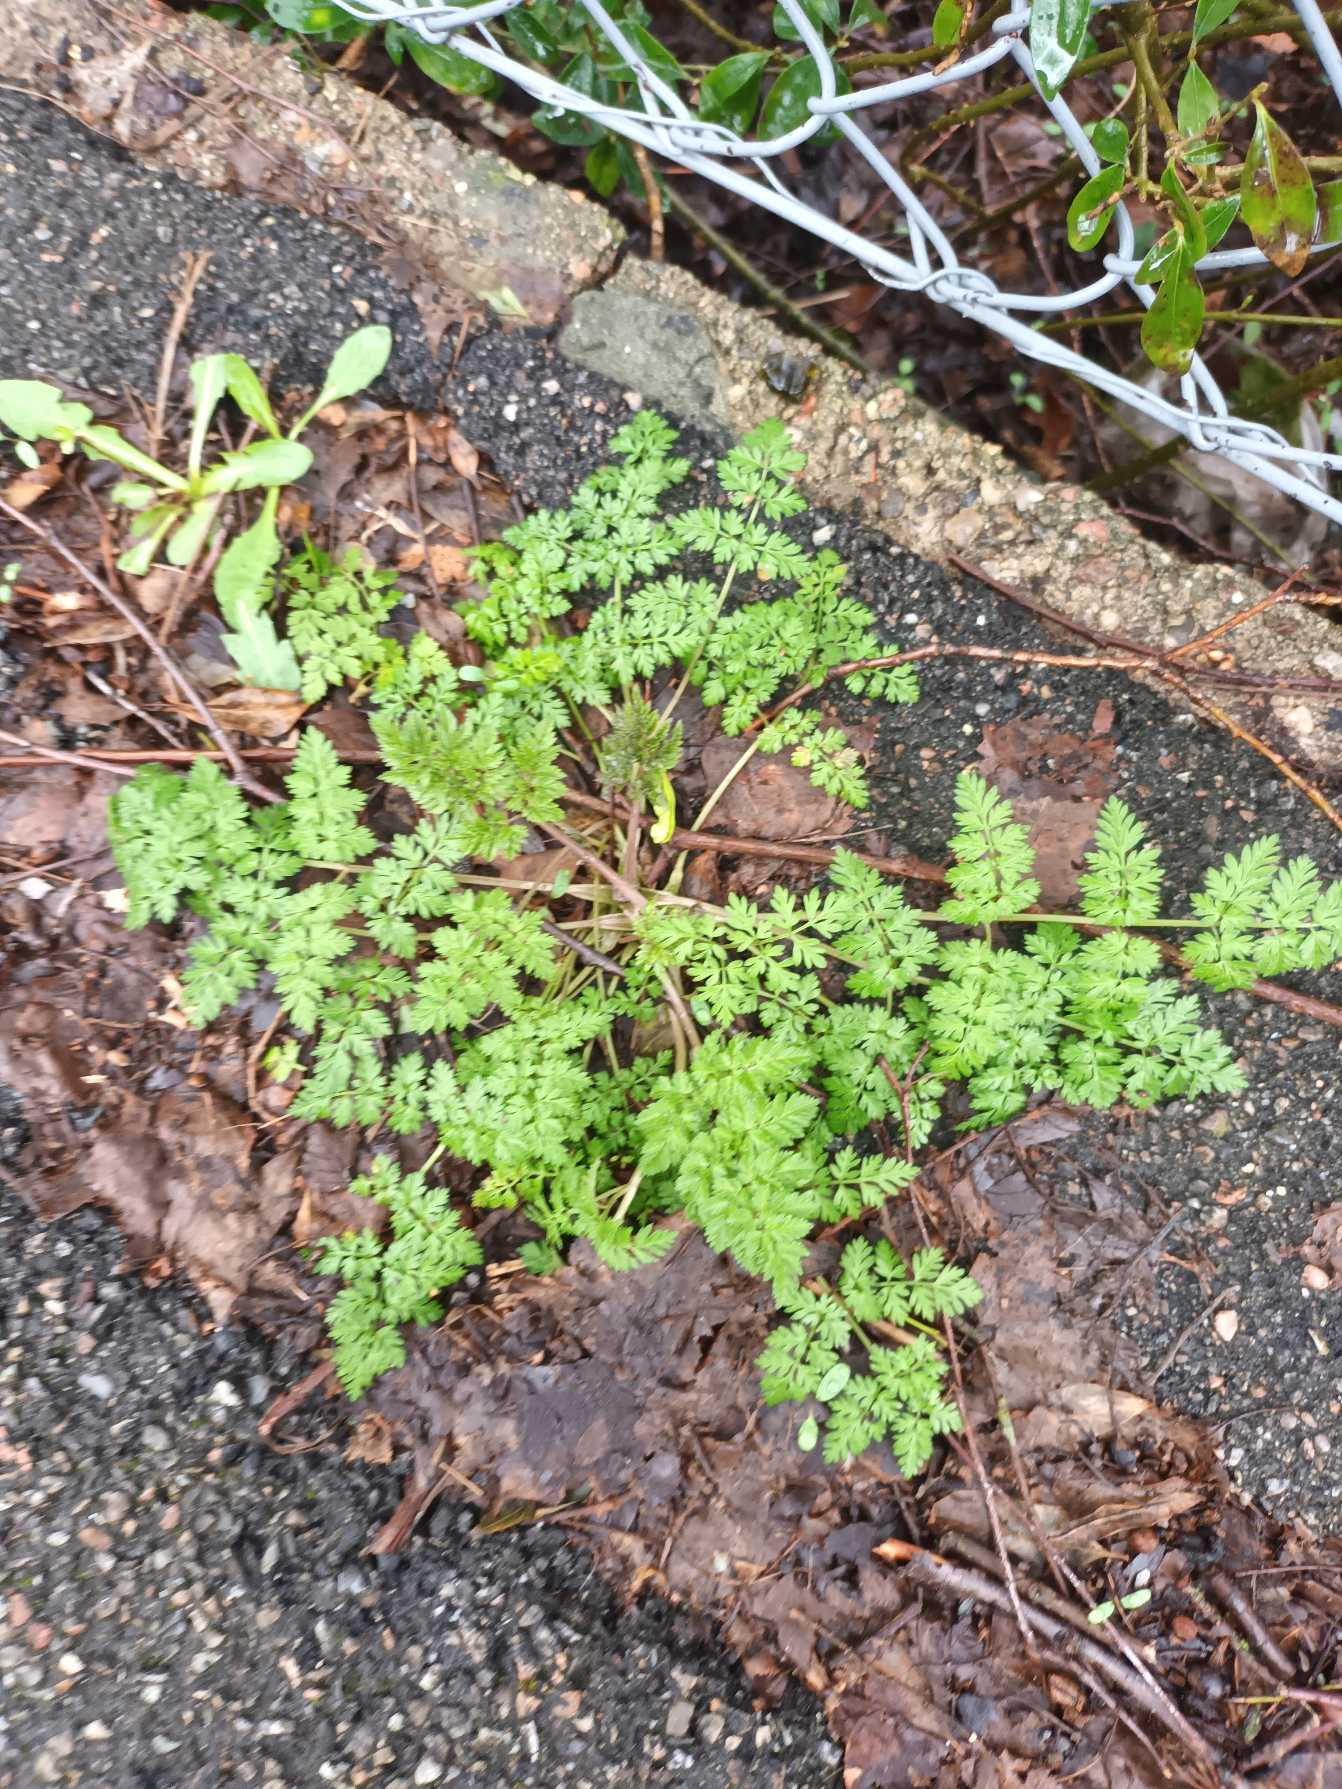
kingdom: Plantae
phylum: Tracheophyta
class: Magnoliopsida
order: Apiales
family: Apiaceae
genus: Anthriscus
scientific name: Anthriscus sylvestris
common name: Vild kørvel
